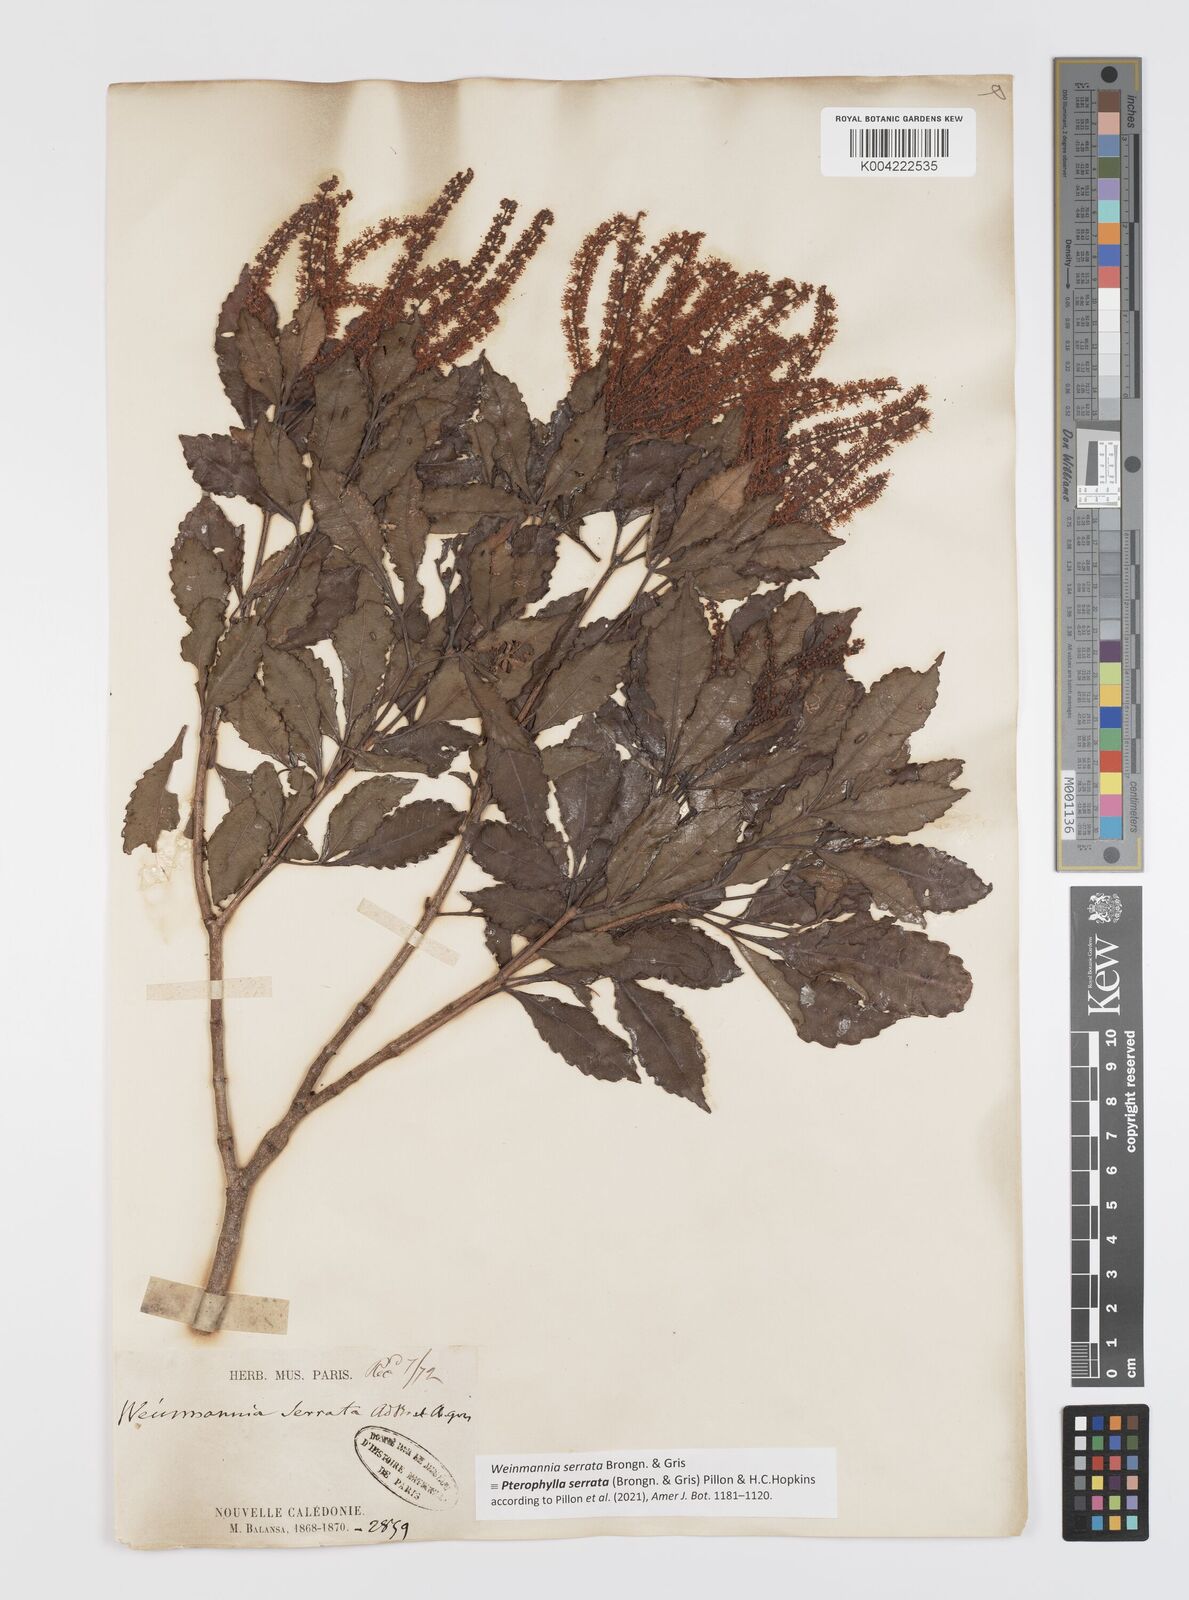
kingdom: Plantae
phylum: Tracheophyta
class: Magnoliopsida
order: Oxalidales
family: Cunoniaceae
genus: Pterophylla
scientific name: Pterophylla serrata
